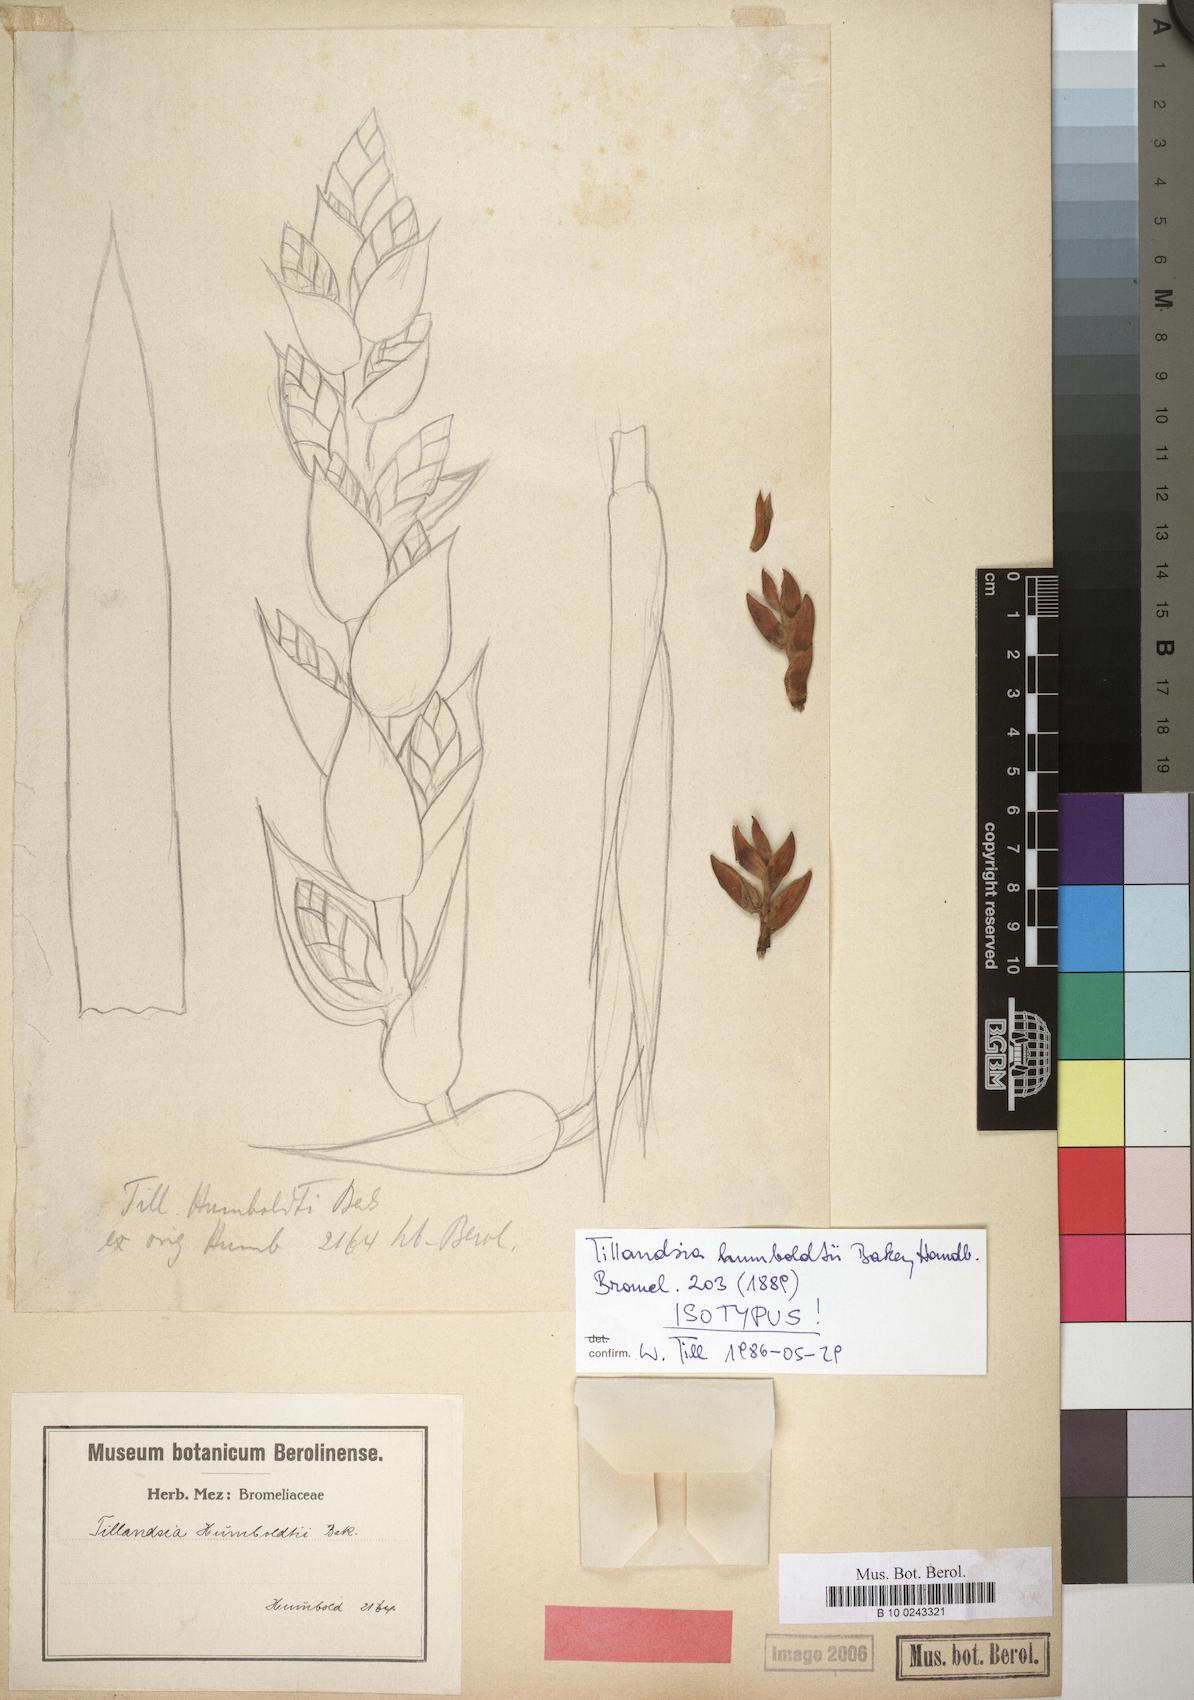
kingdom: Plantae
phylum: Tracheophyta
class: Liliopsida
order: Poales
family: Bromeliaceae
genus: Tillandsia
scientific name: Tillandsia humboldtii
